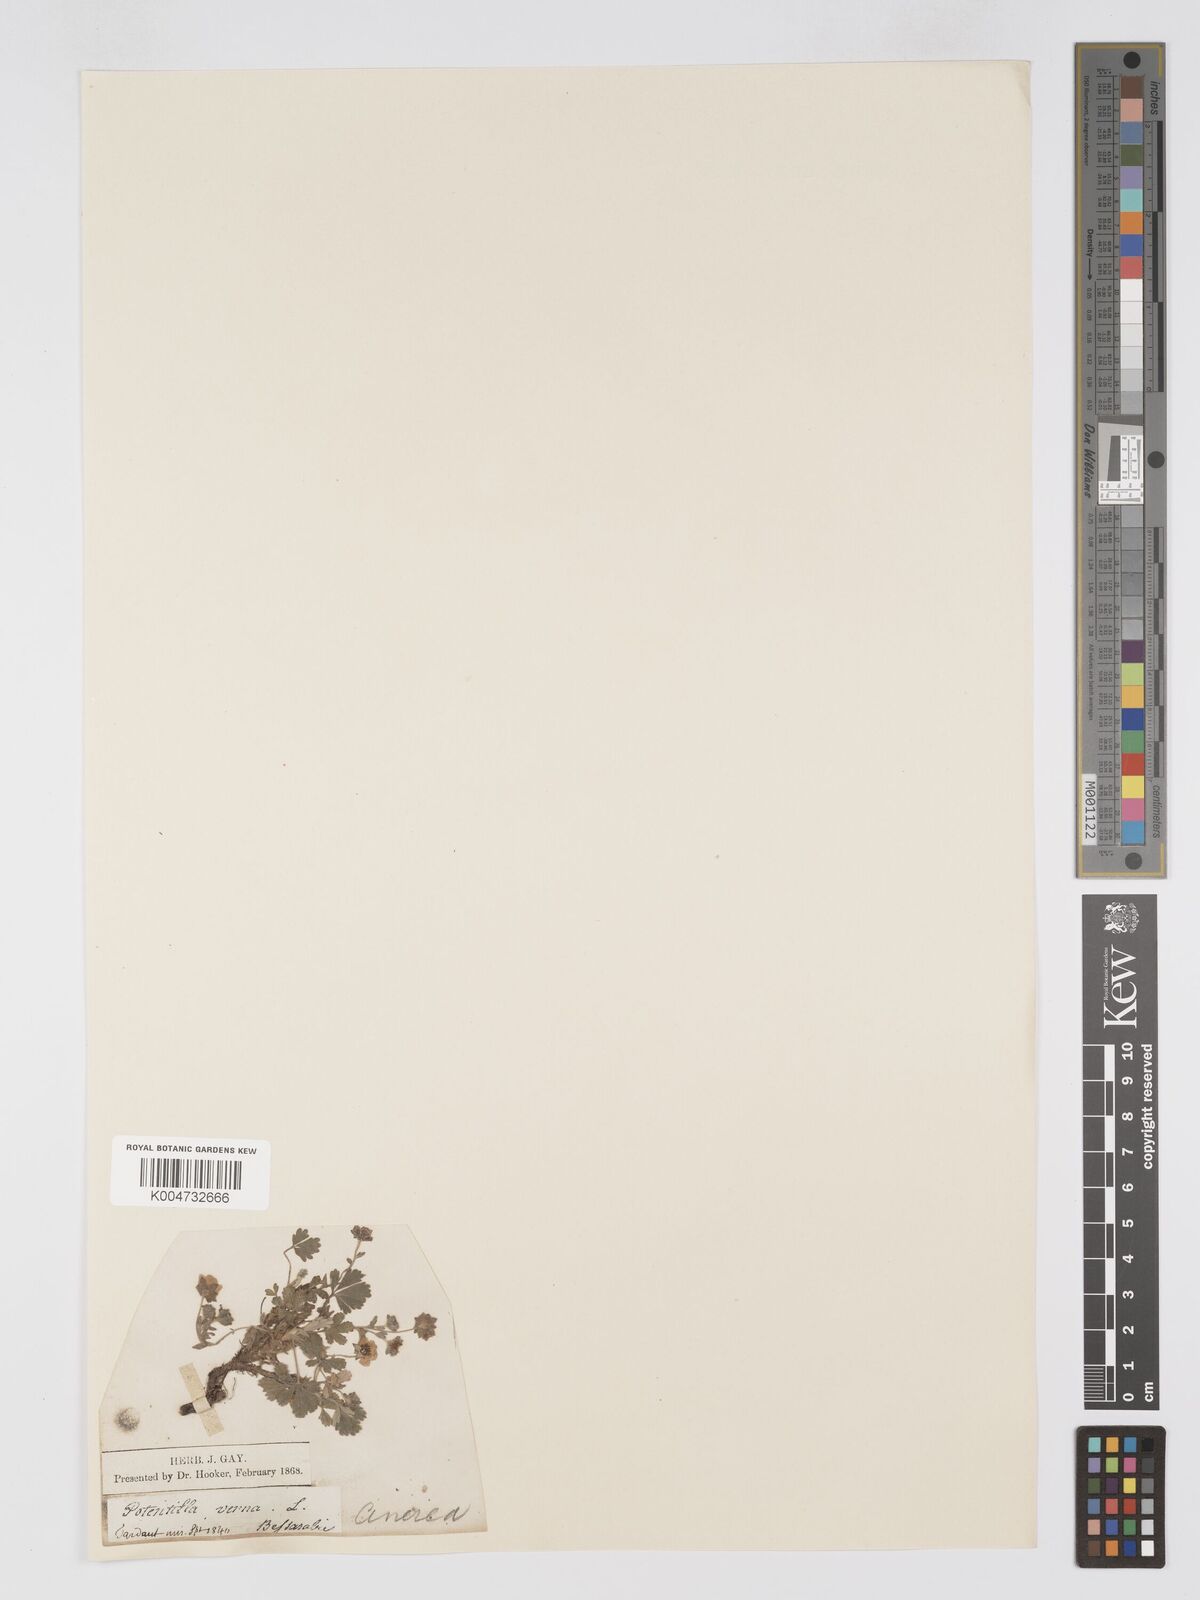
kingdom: Plantae
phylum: Tracheophyta
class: Magnoliopsida
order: Rosales
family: Rosaceae
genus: Potentilla
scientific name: Potentilla cinerea
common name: Ashy cinquefoil
